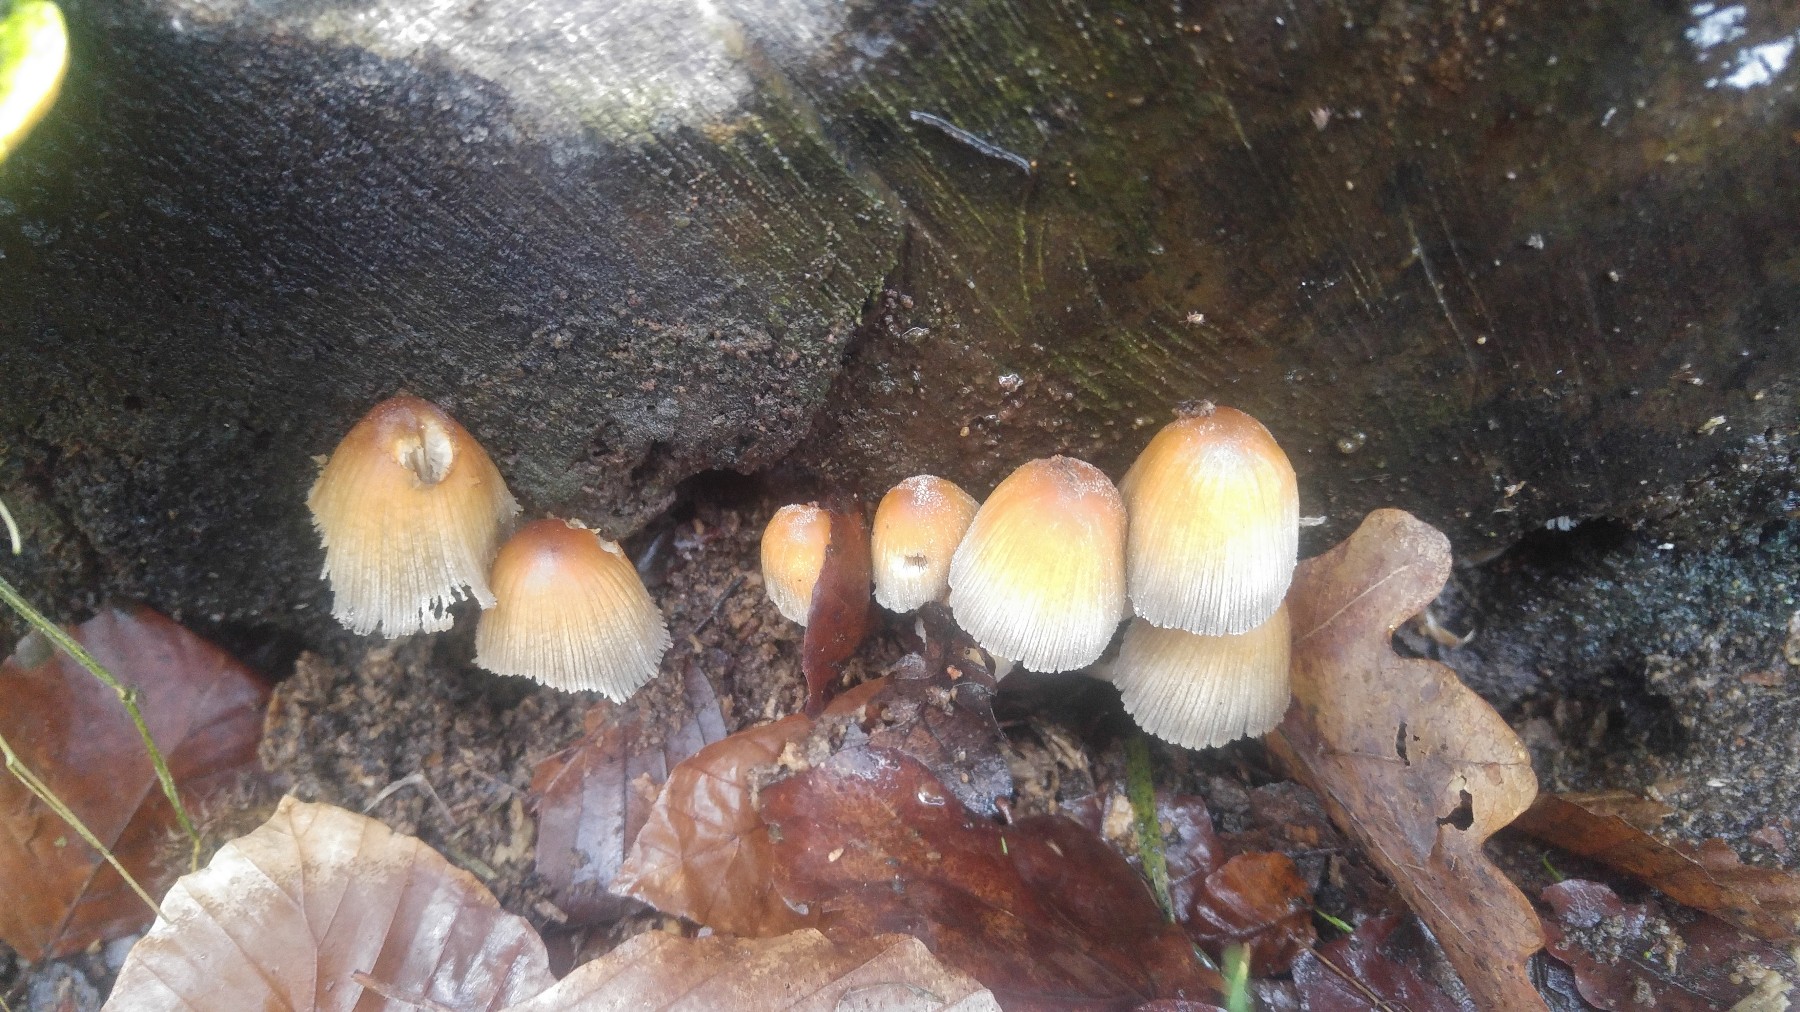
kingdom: Fungi
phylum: Basidiomycota
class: Agaricomycetes
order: Agaricales
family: Psathyrellaceae
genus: Coprinellus
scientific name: Coprinellus micaceus
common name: glimmer-blækhat
